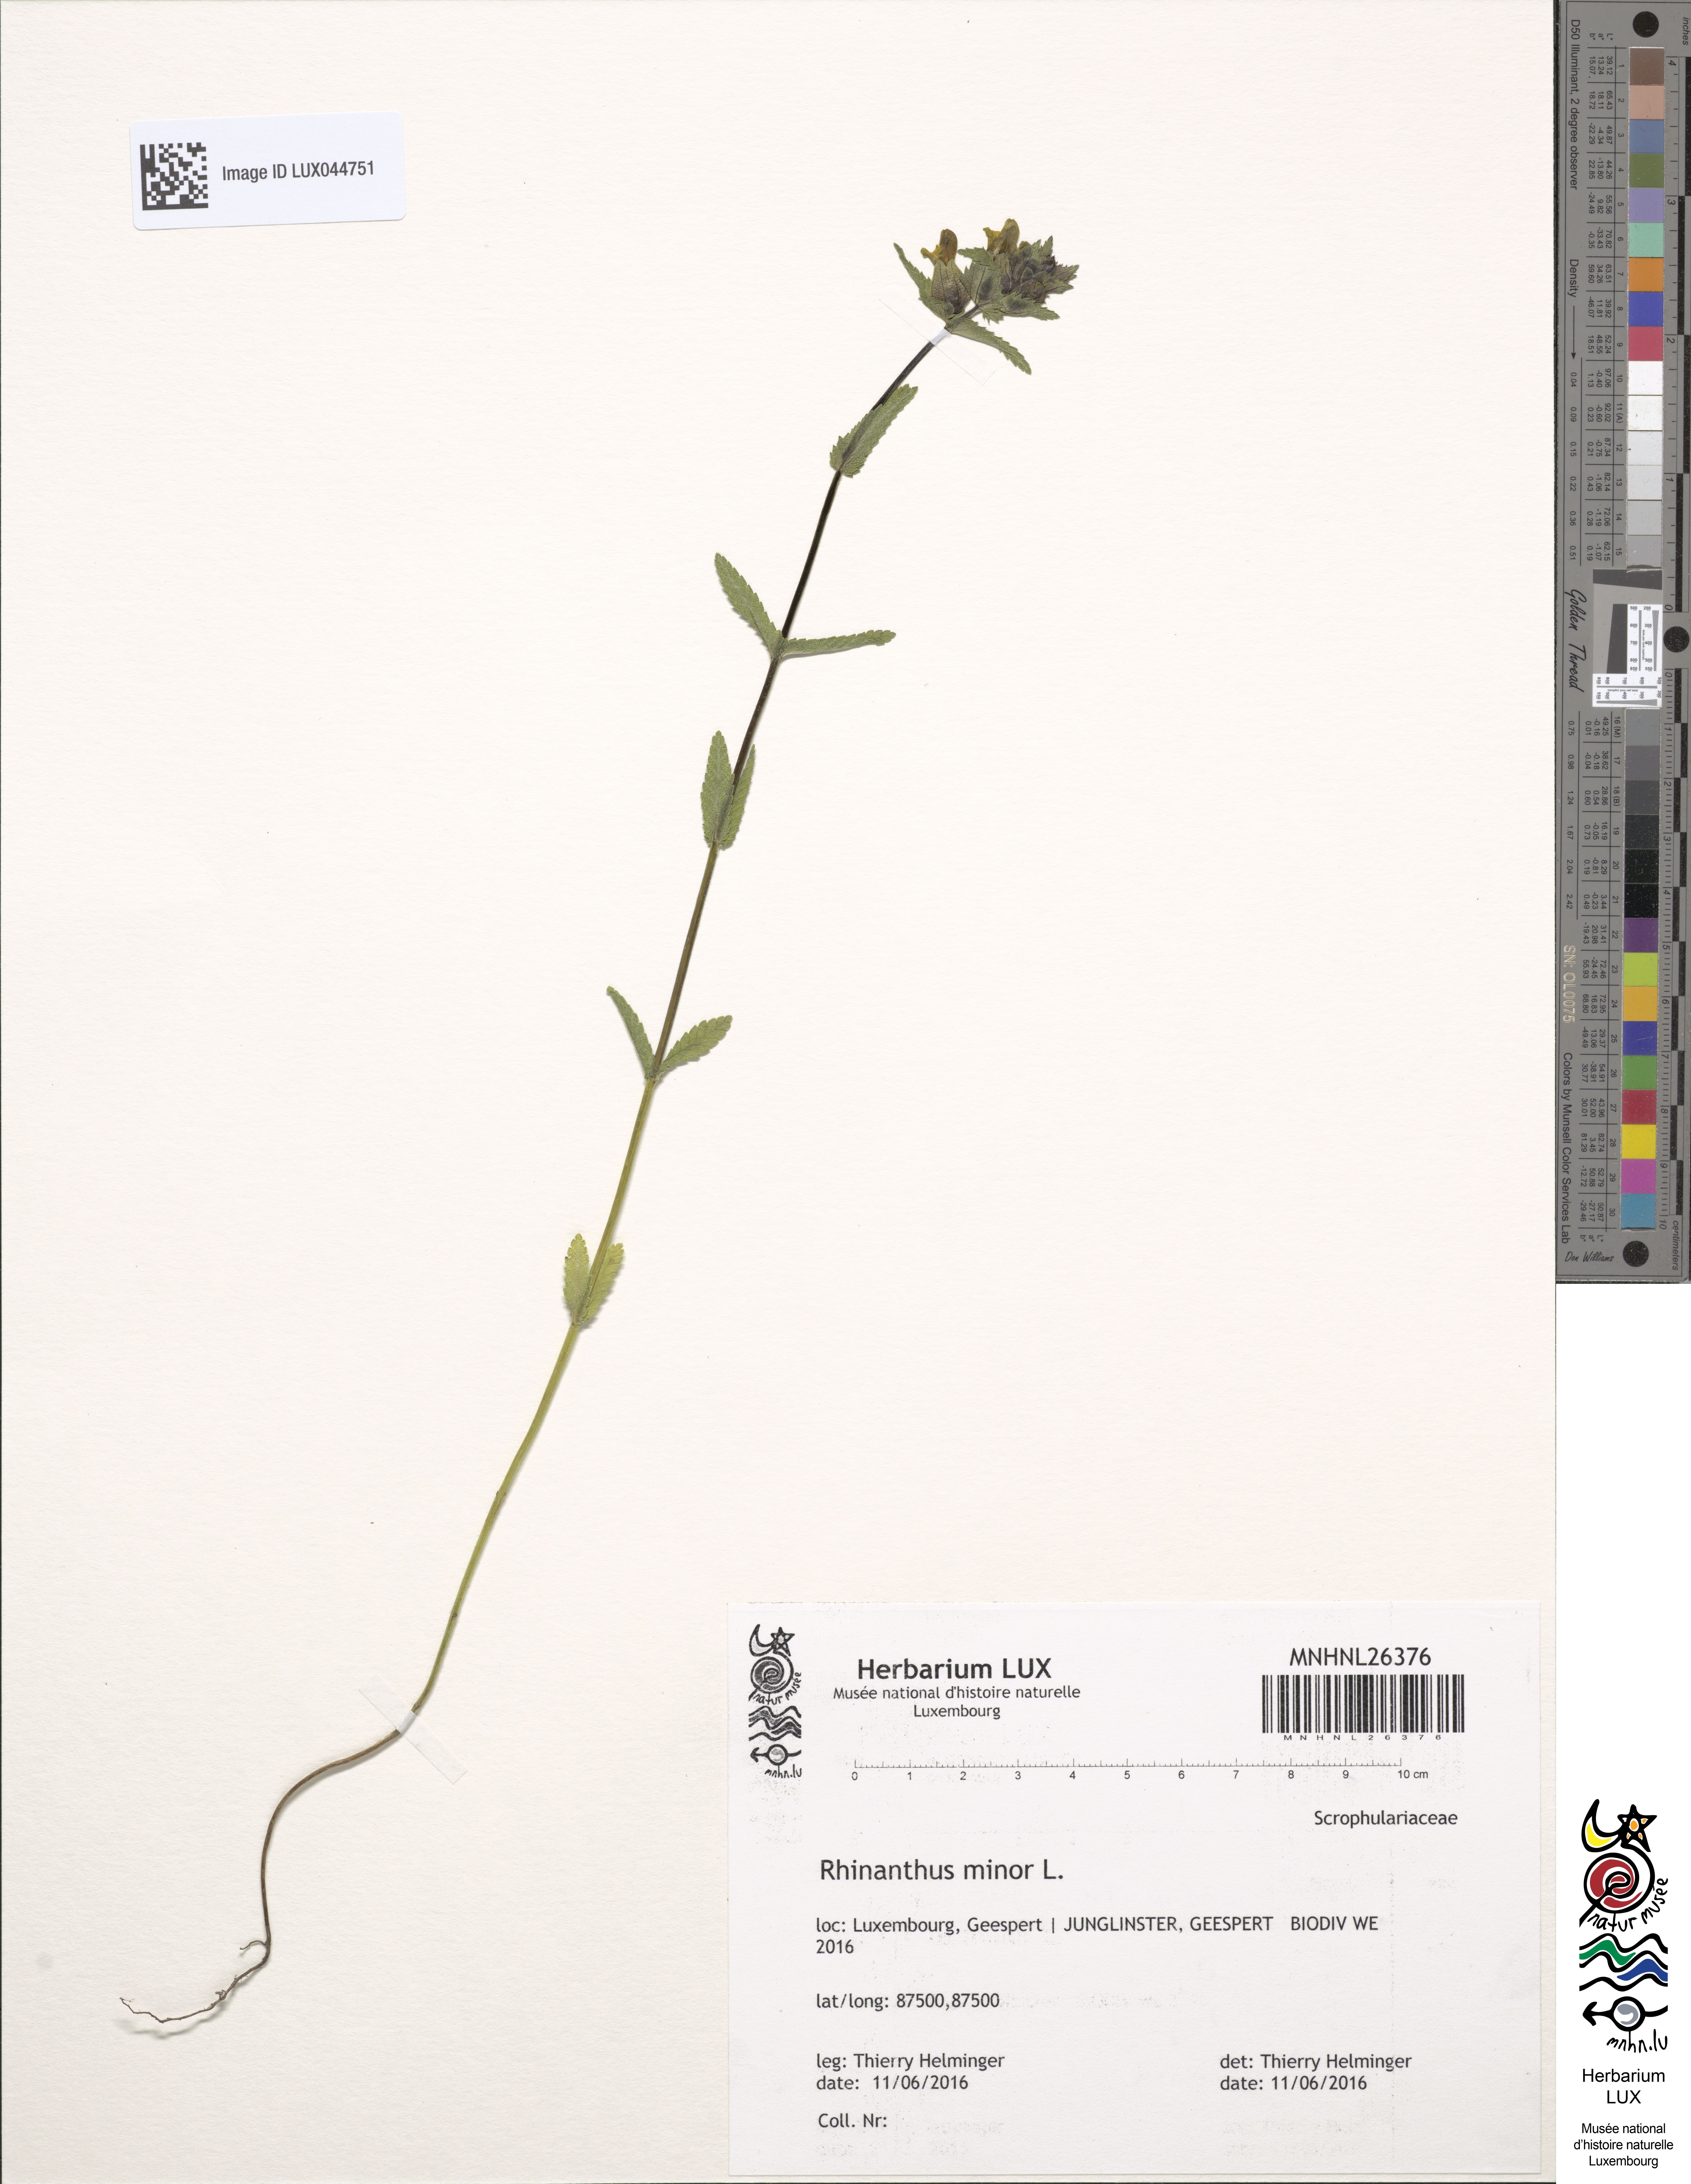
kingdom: Plantae
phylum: Tracheophyta
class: Magnoliopsida
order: Lamiales
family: Orobanchaceae
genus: Rhinanthus
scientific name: Rhinanthus minor
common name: Yellow-rattle
